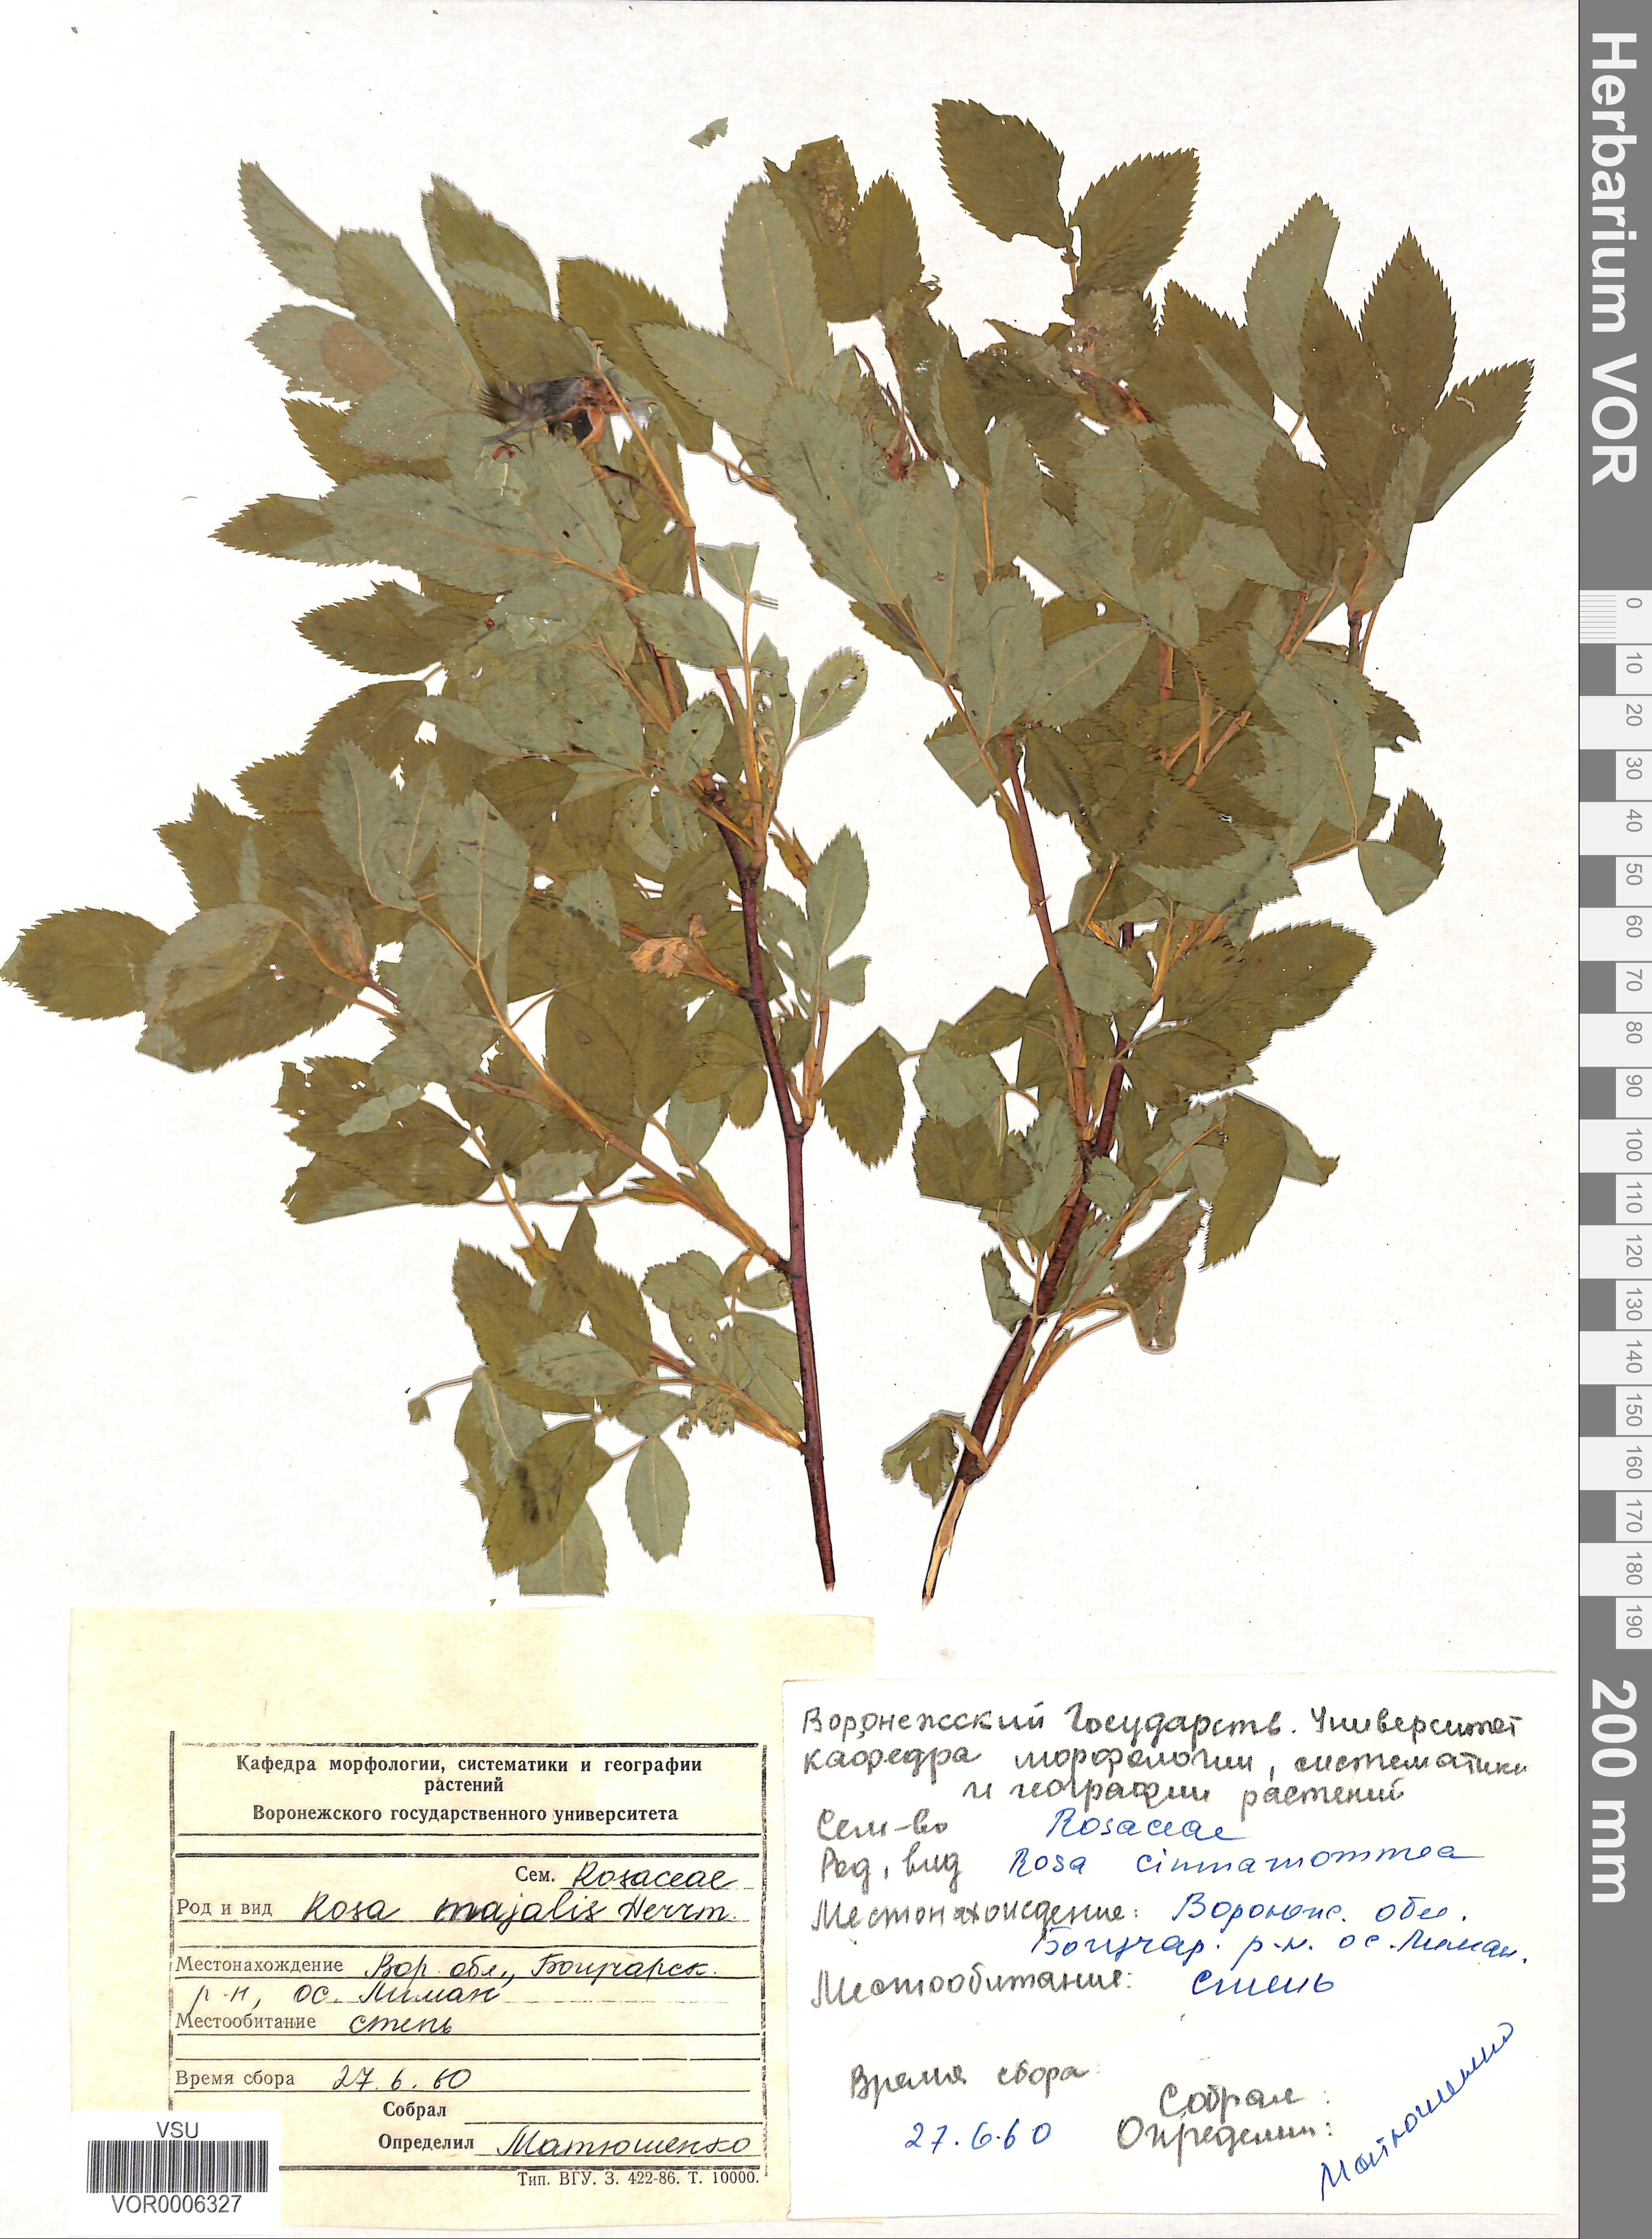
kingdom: Plantae
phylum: Tracheophyta
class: Magnoliopsida
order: Rosales
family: Rosaceae
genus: Rosa
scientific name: Rosa majalis
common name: Cinnamon rose
